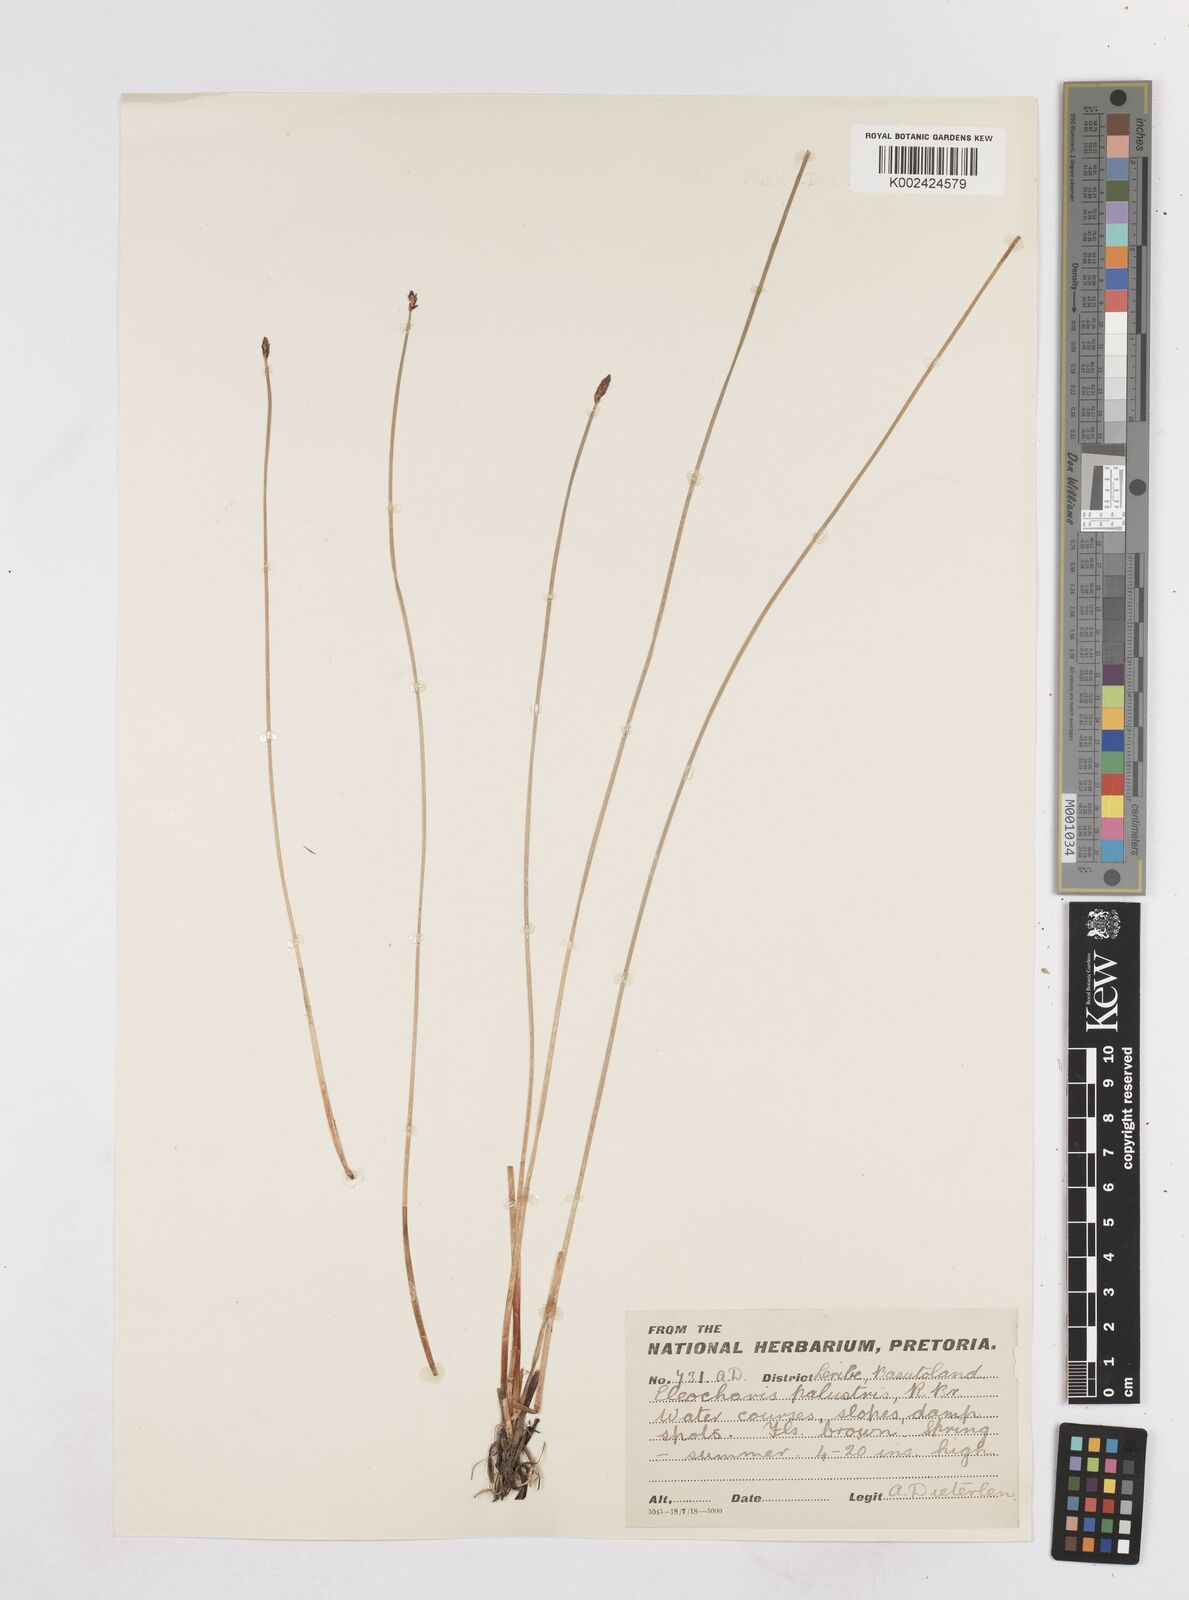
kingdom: Plantae
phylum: Tracheophyta
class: Liliopsida
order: Poales
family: Cyperaceae
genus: Eleocharis
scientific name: Eleocharis palustris
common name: Common spike-rush
